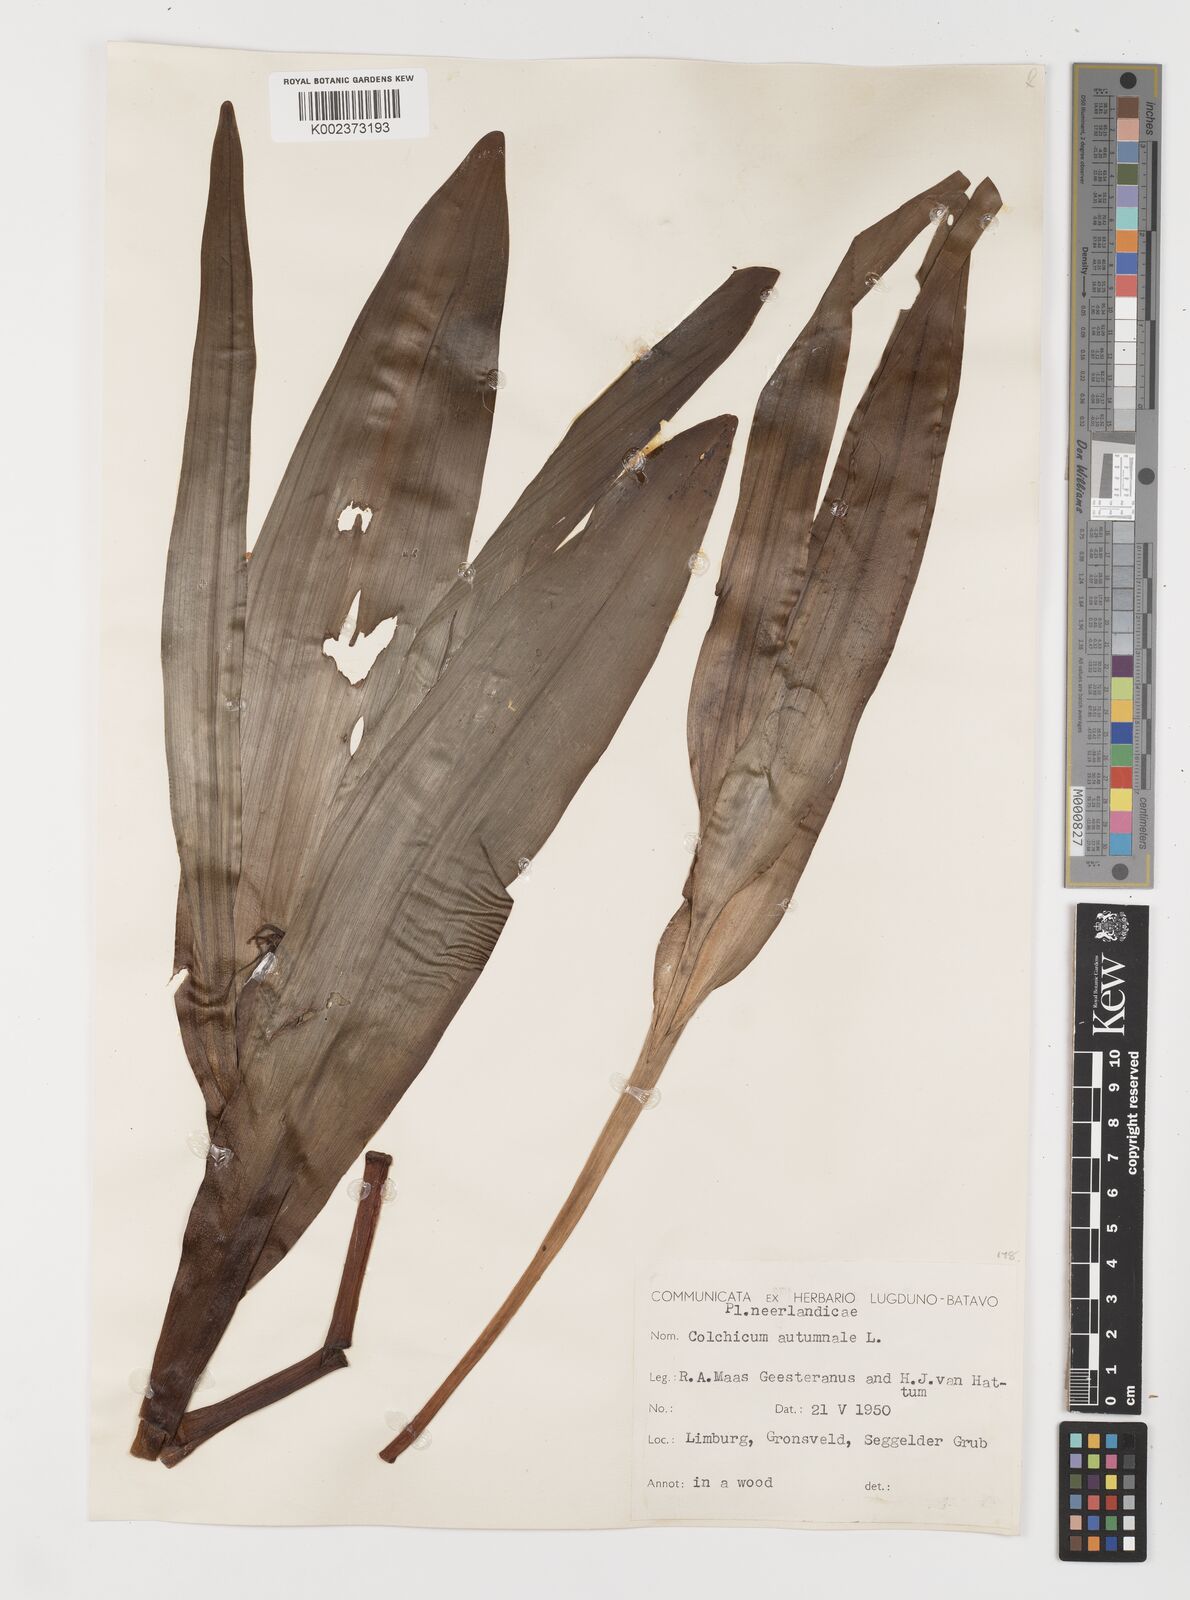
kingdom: Plantae
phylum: Tracheophyta
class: Liliopsida
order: Liliales
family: Colchicaceae
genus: Colchicum
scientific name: Colchicum autumnale
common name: Autumn crocus
